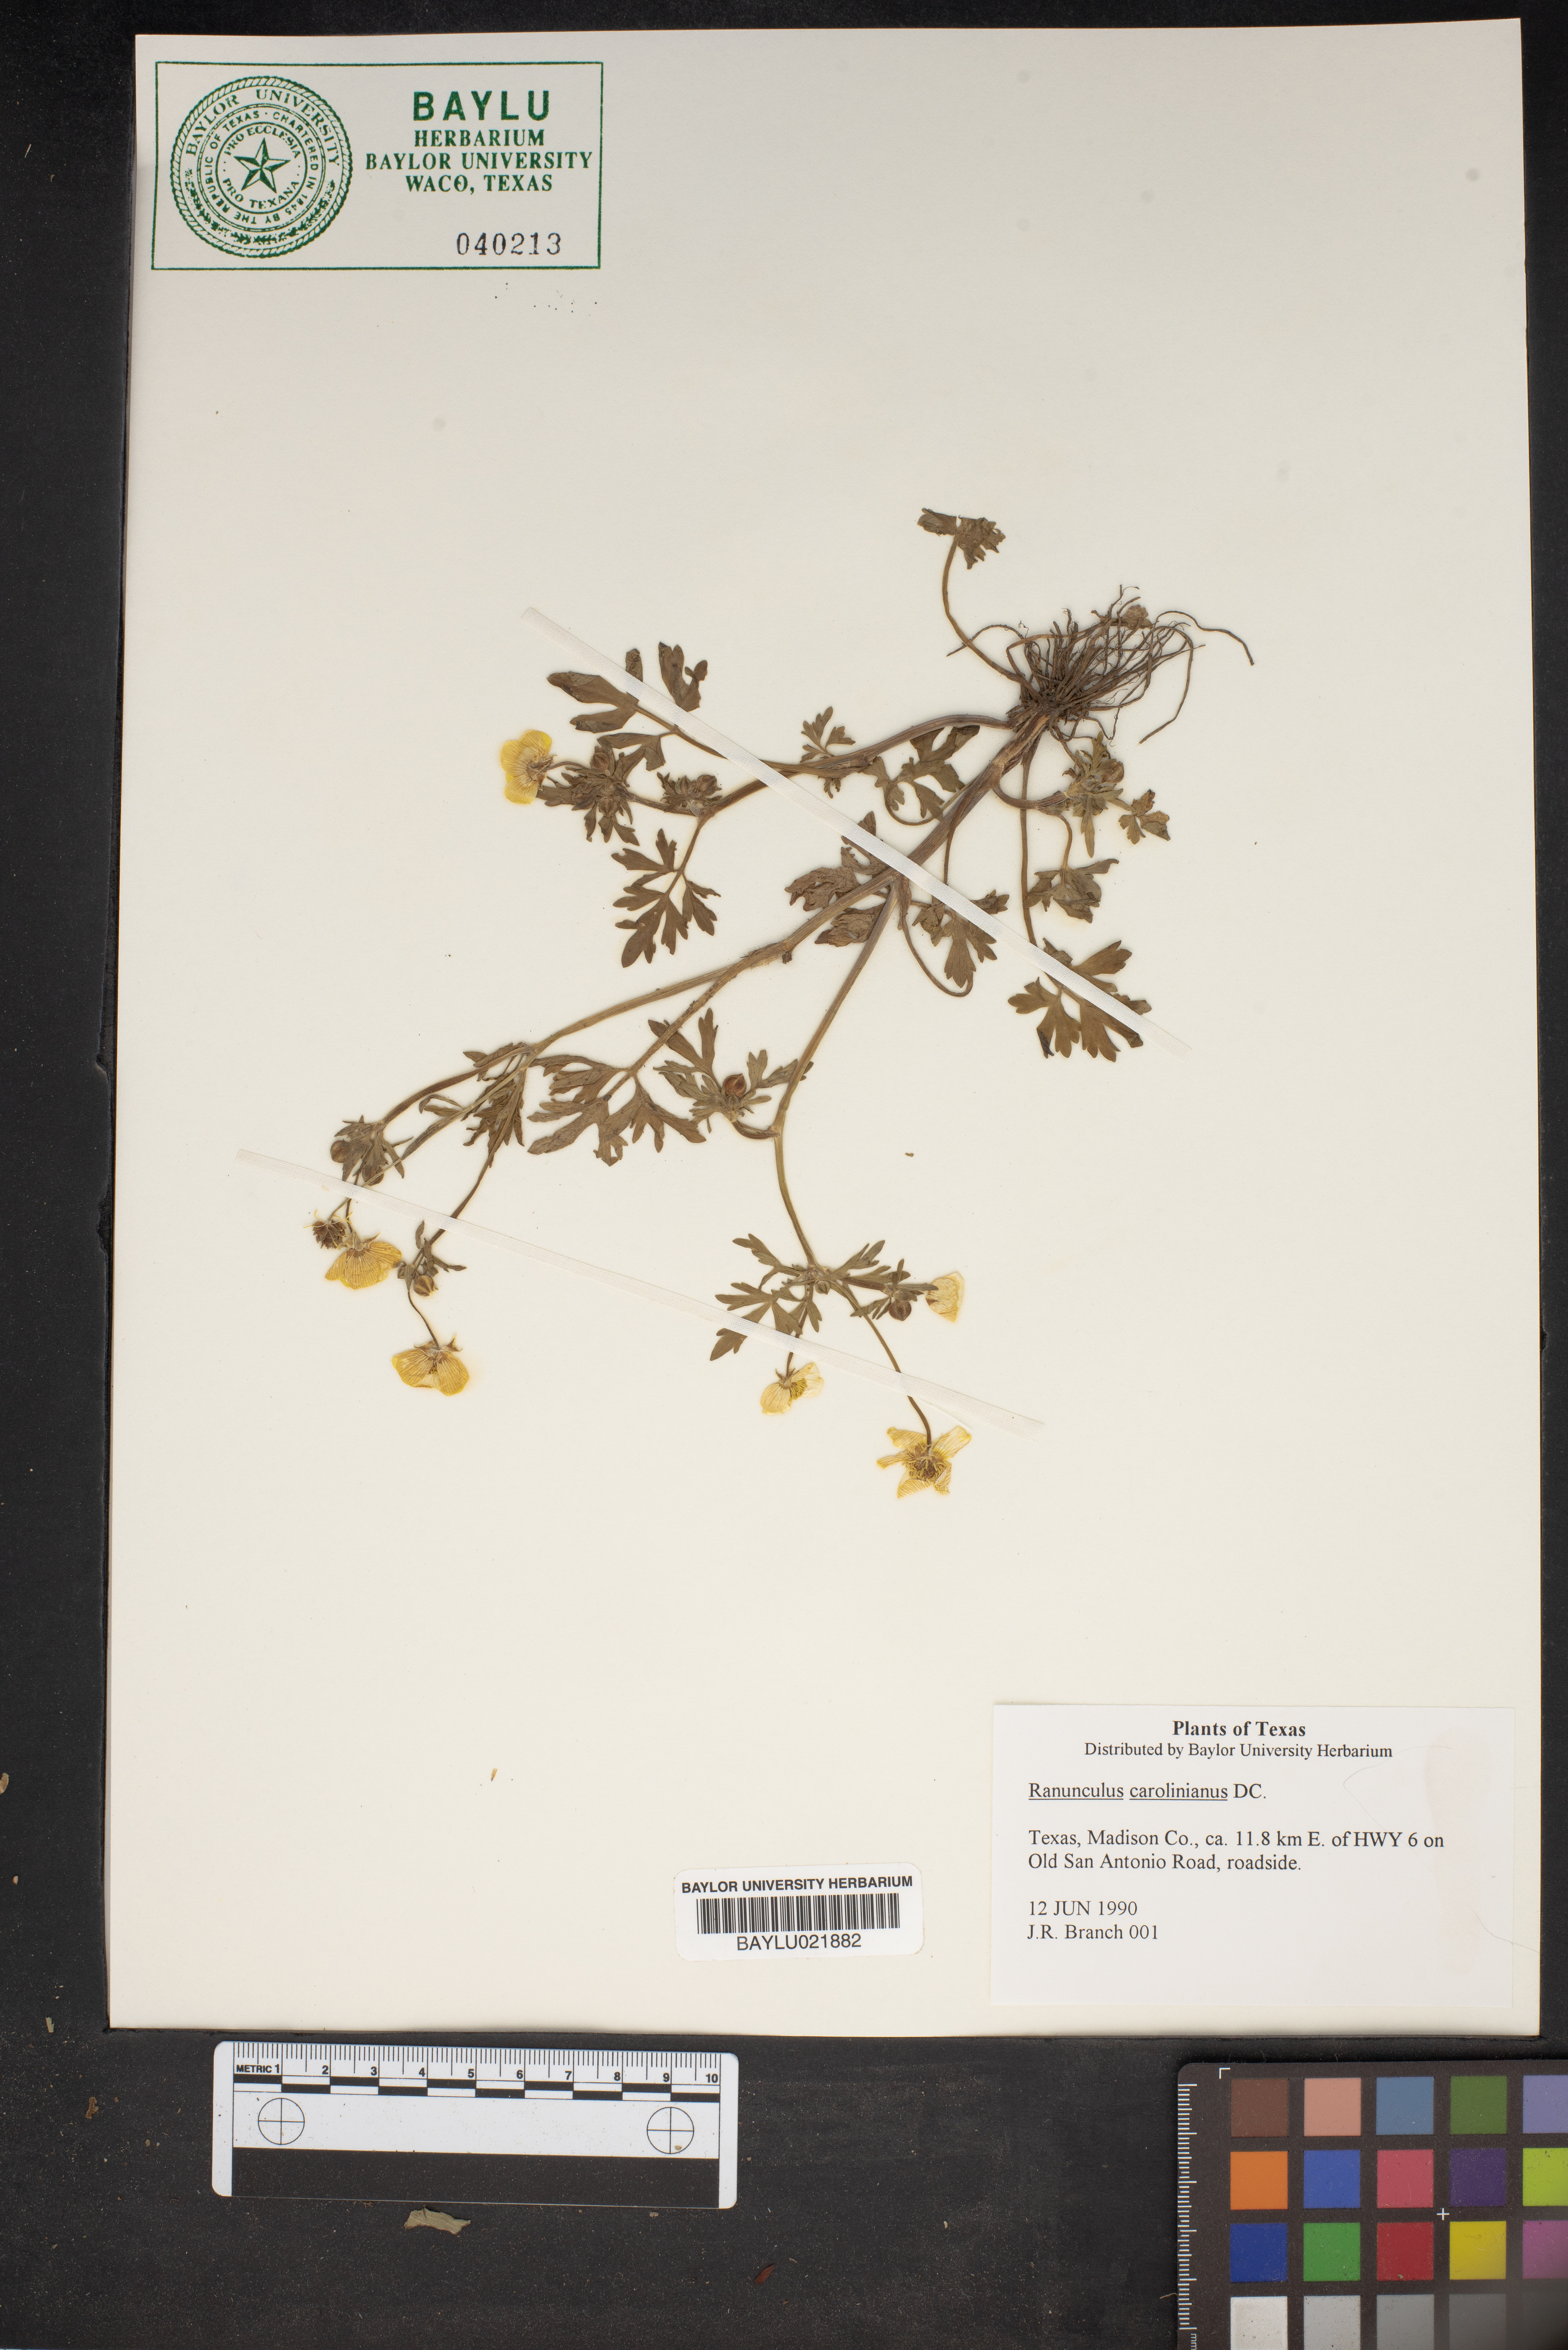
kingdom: Plantae
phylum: Tracheophyta
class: Magnoliopsida
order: Ranunculales
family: Ranunculaceae
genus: Ranunculus
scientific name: Ranunculus hispidus
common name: Bristly buttercup
